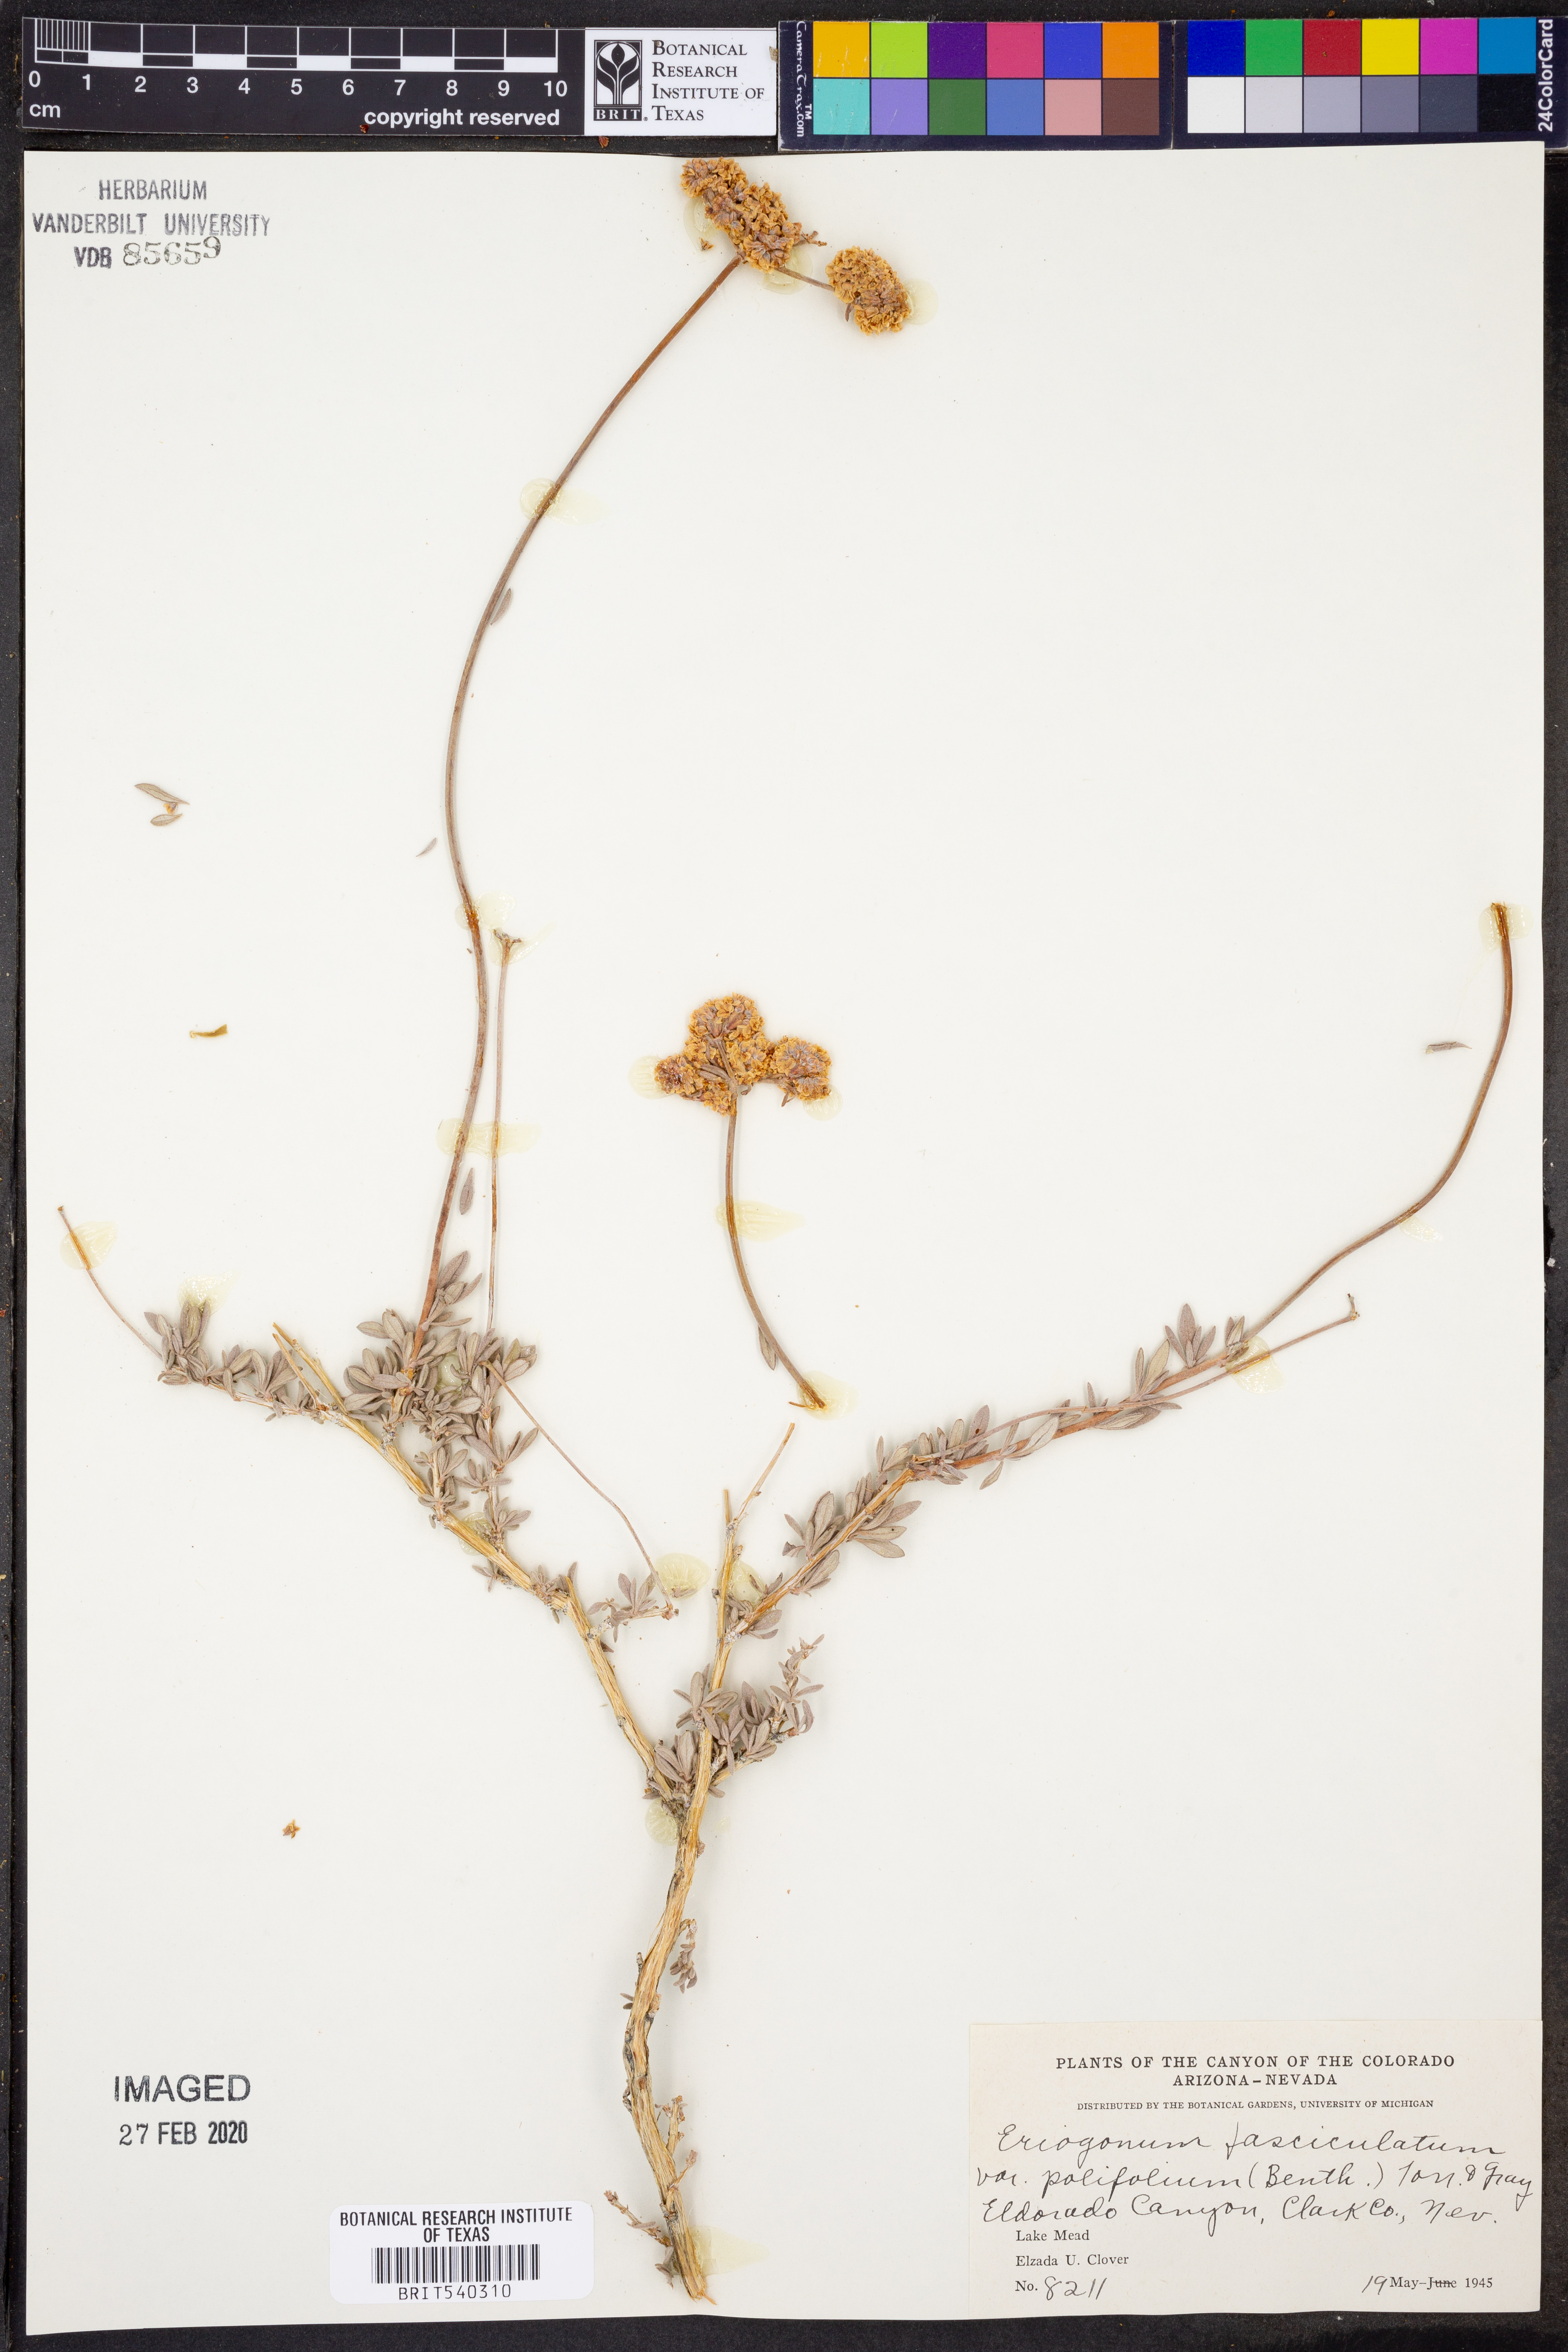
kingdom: Plantae
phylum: Tracheophyta
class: Magnoliopsida
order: Caryophyllales
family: Polygonaceae
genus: Eriogonum
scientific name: Eriogonum fasciculatum
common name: California wild buckwheat
